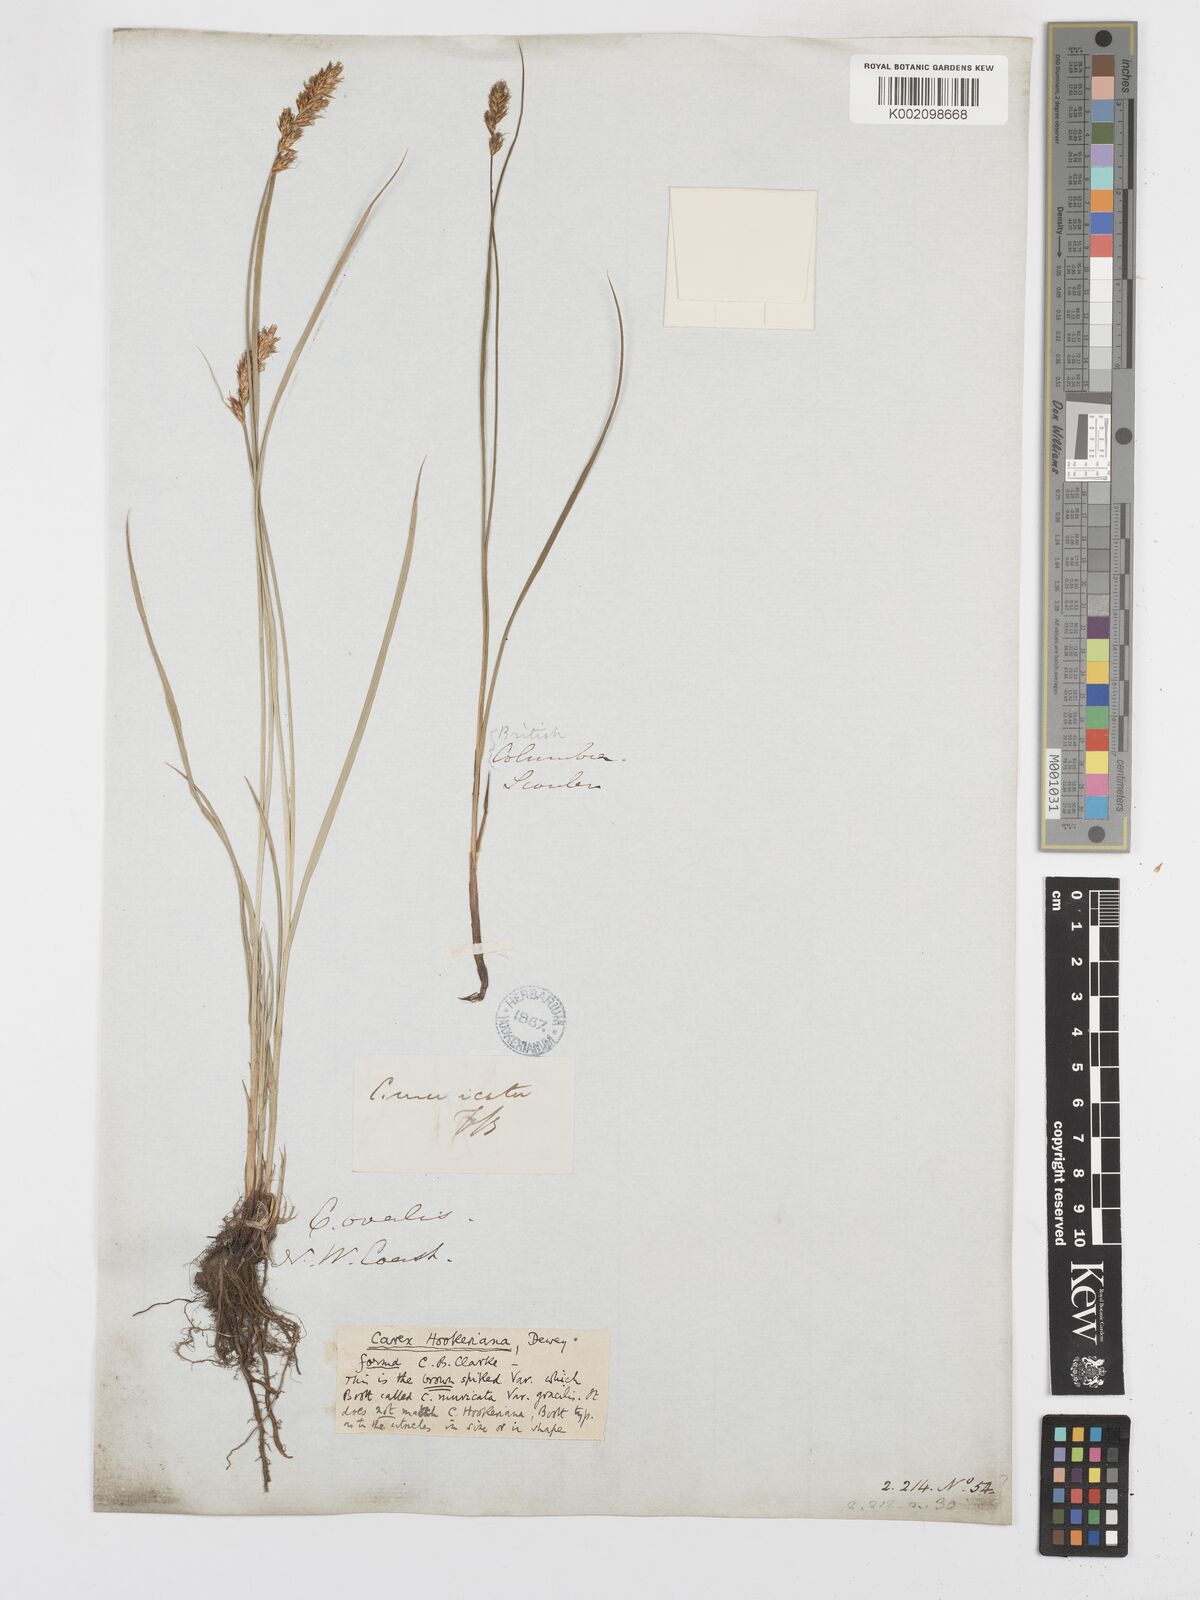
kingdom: Plantae
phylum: Tracheophyta
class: Liliopsida
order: Poales
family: Cyperaceae
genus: Carex
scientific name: Carex tumulicola
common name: Splitawn sedge
